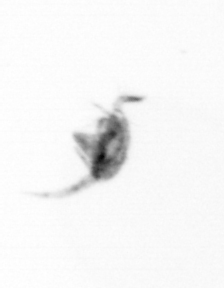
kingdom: Animalia
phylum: Arthropoda
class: Copepoda
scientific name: Copepoda
